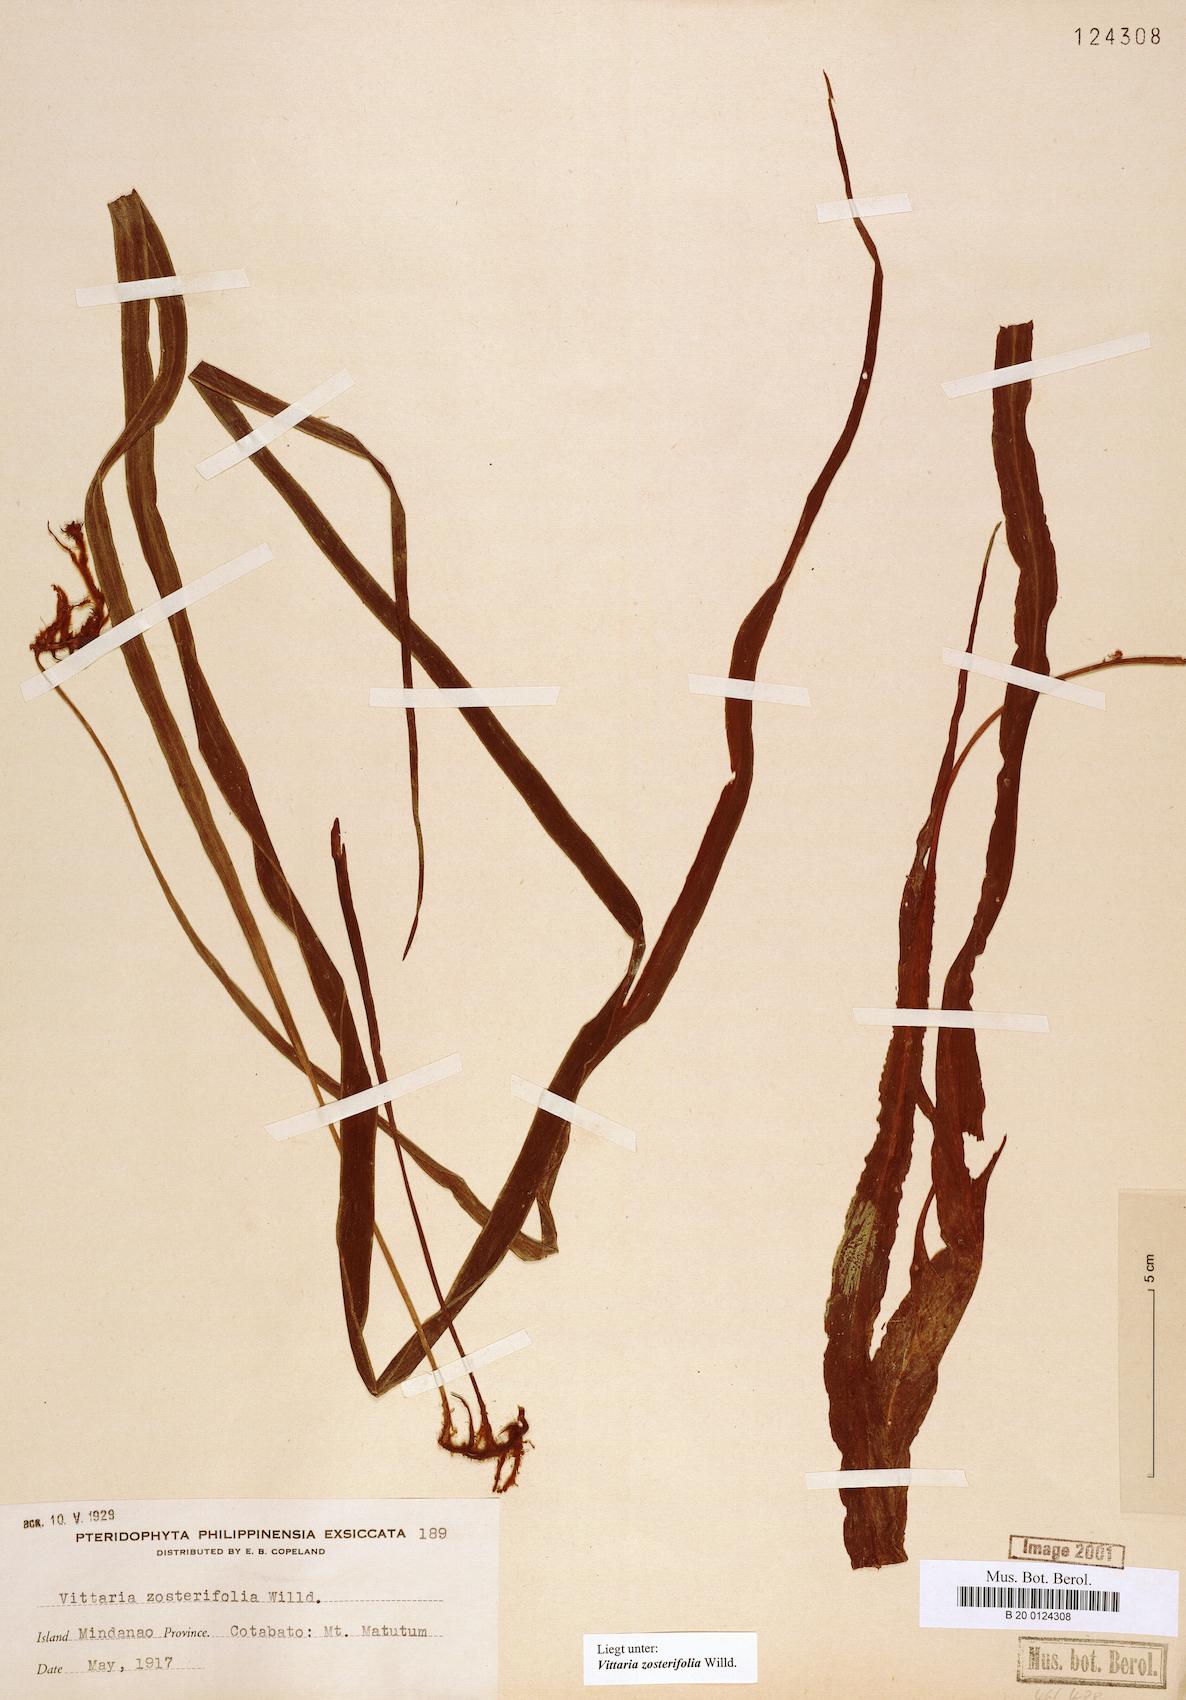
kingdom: Plantae
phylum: Tracheophyta
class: Polypodiopsida
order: Polypodiales
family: Pteridaceae
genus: Haplopteris
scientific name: Haplopteris zosterifolia
